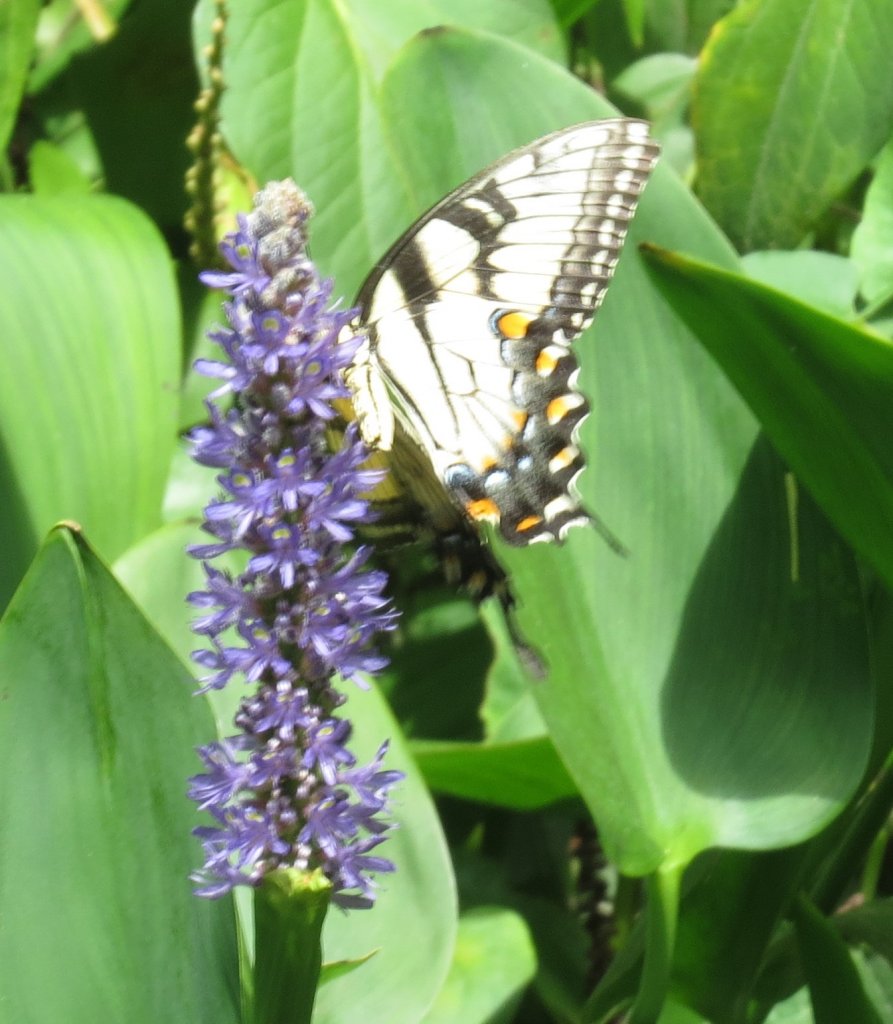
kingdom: Animalia
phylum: Arthropoda
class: Insecta
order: Lepidoptera
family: Papilionidae
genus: Pterourus
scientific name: Pterourus glaucus
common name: Eastern Tiger Swallowtail
